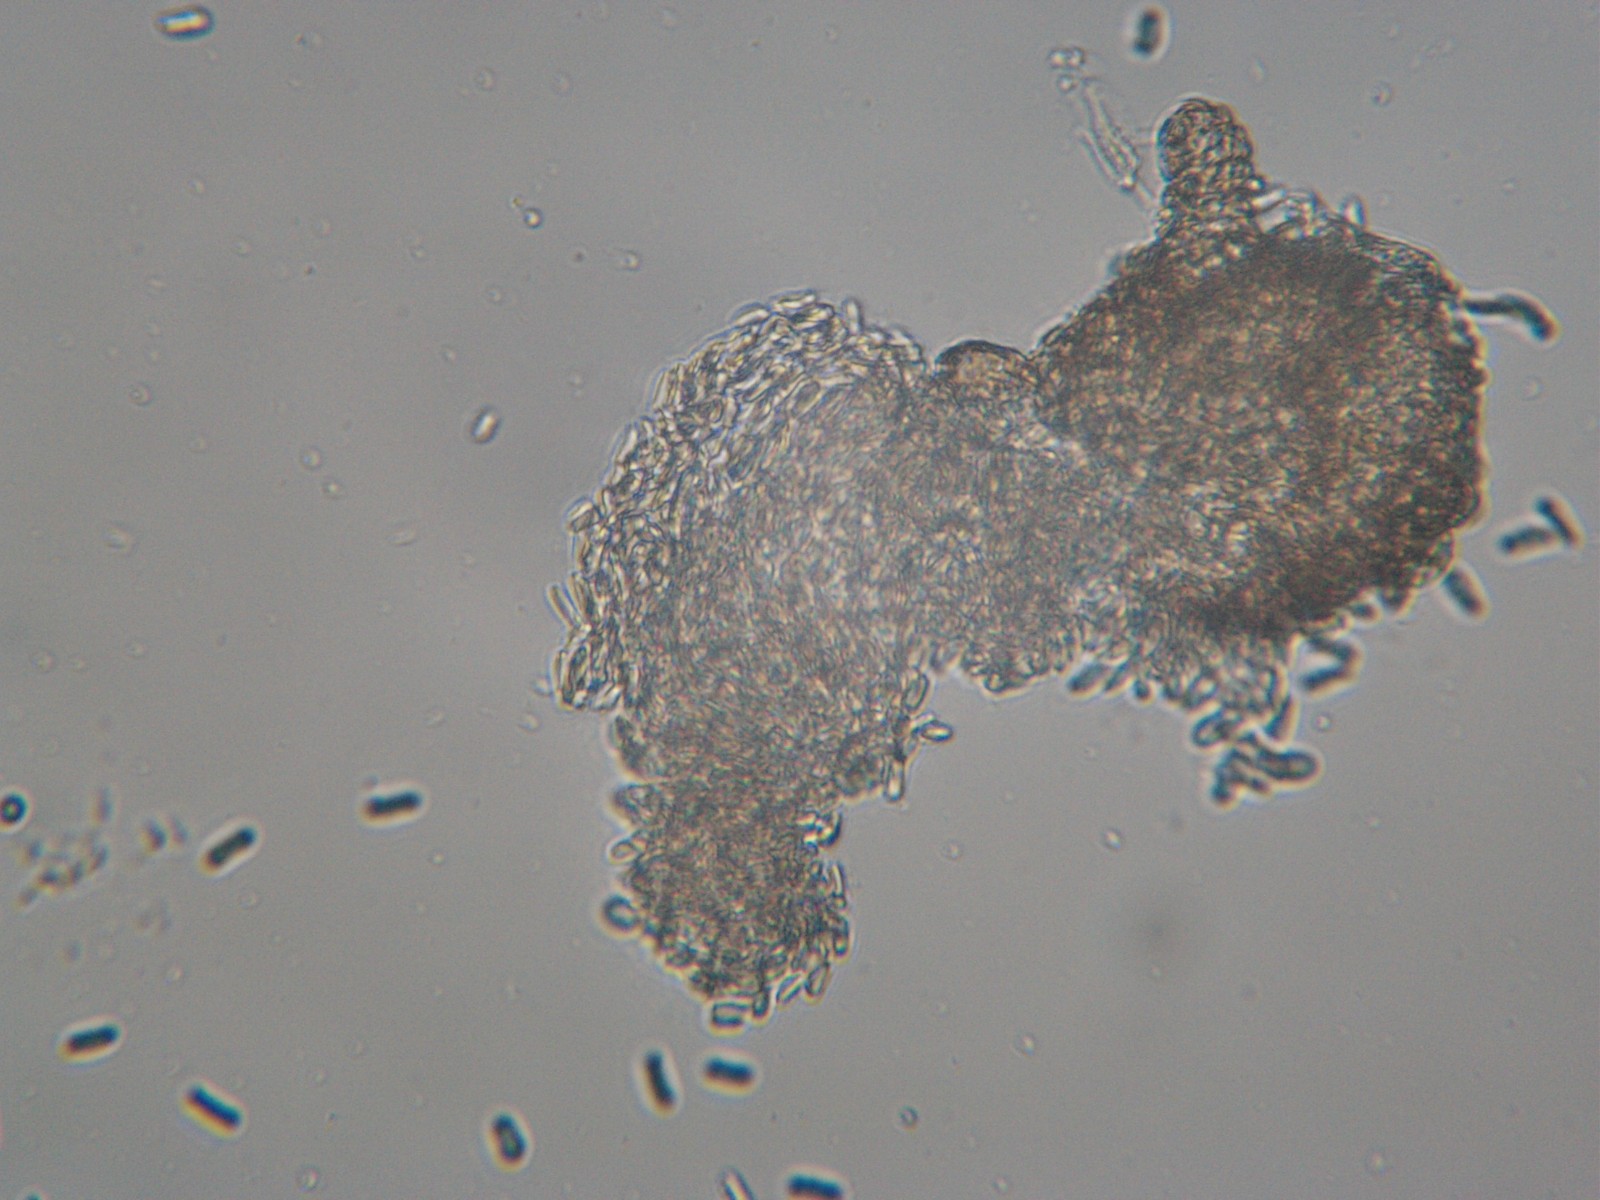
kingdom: Fungi
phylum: Ascomycota
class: Dothideomycetes
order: Pleosporales
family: Phaeosphaeriaceae
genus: Ampelomyces
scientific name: Ampelomyces quisqualis
